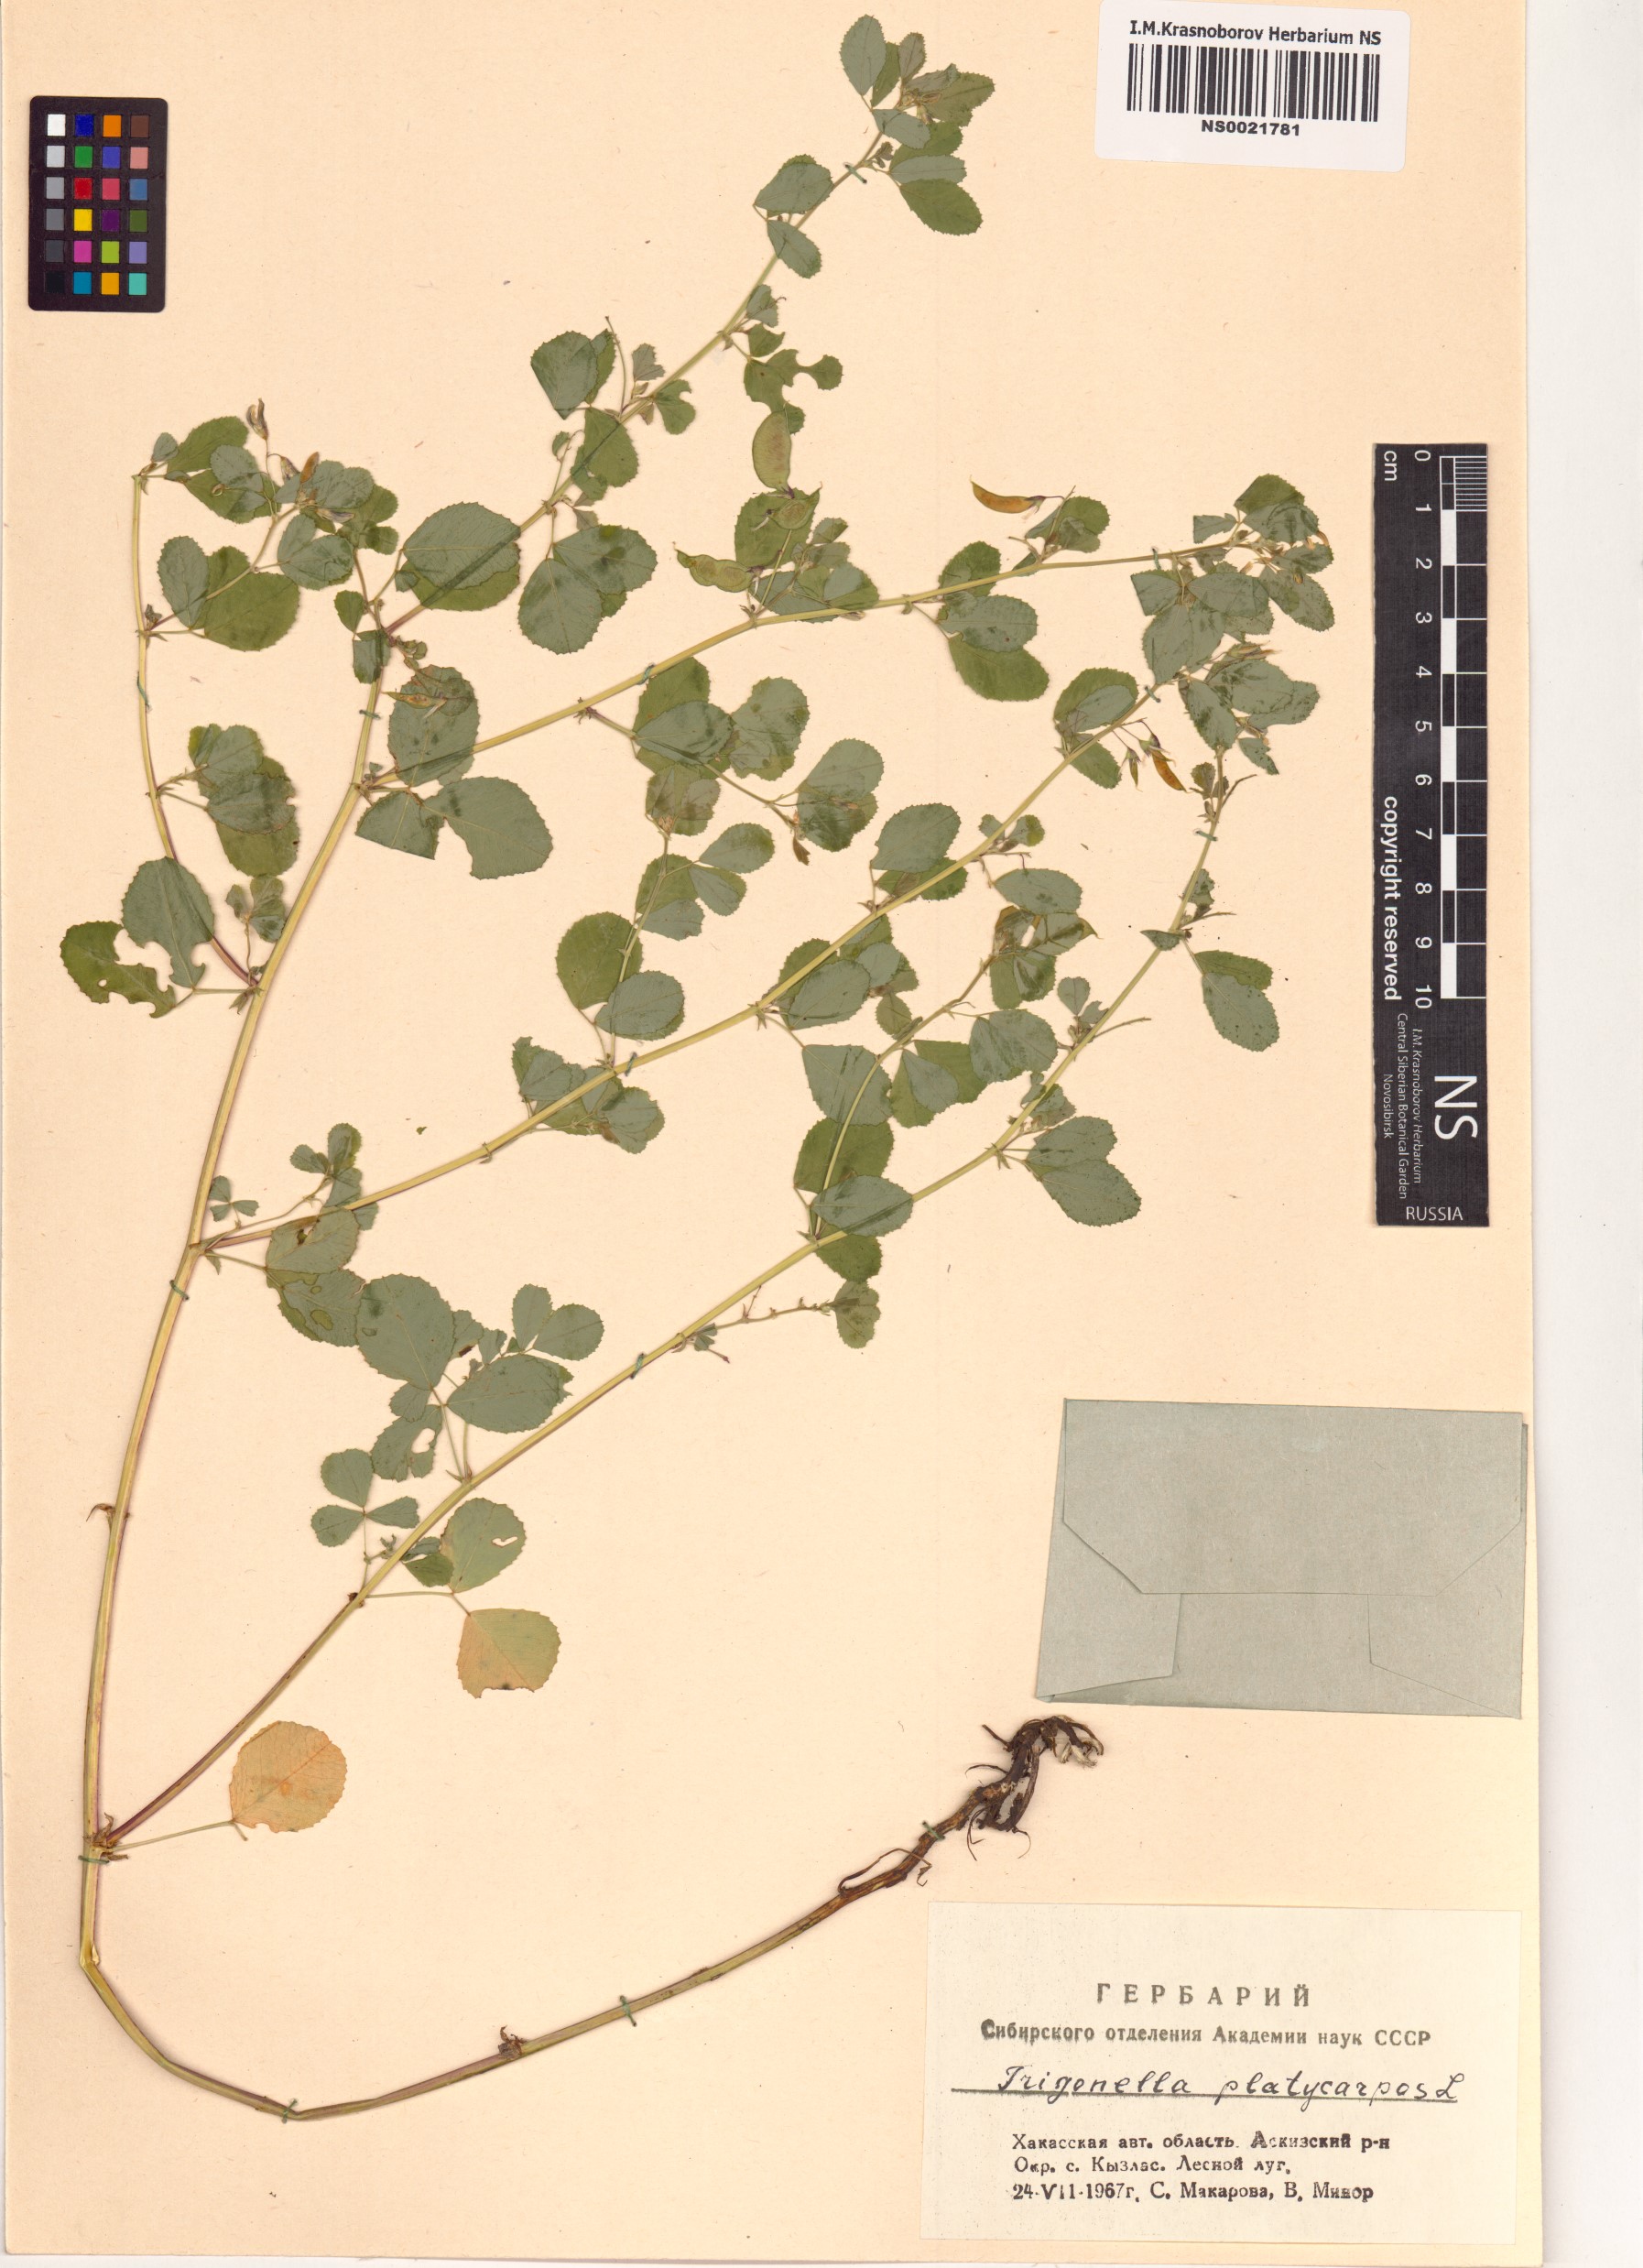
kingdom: Plantae
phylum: Tracheophyta
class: Magnoliopsida
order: Fabales
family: Fabaceae
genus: Medicago
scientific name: Medicago platycarpos
